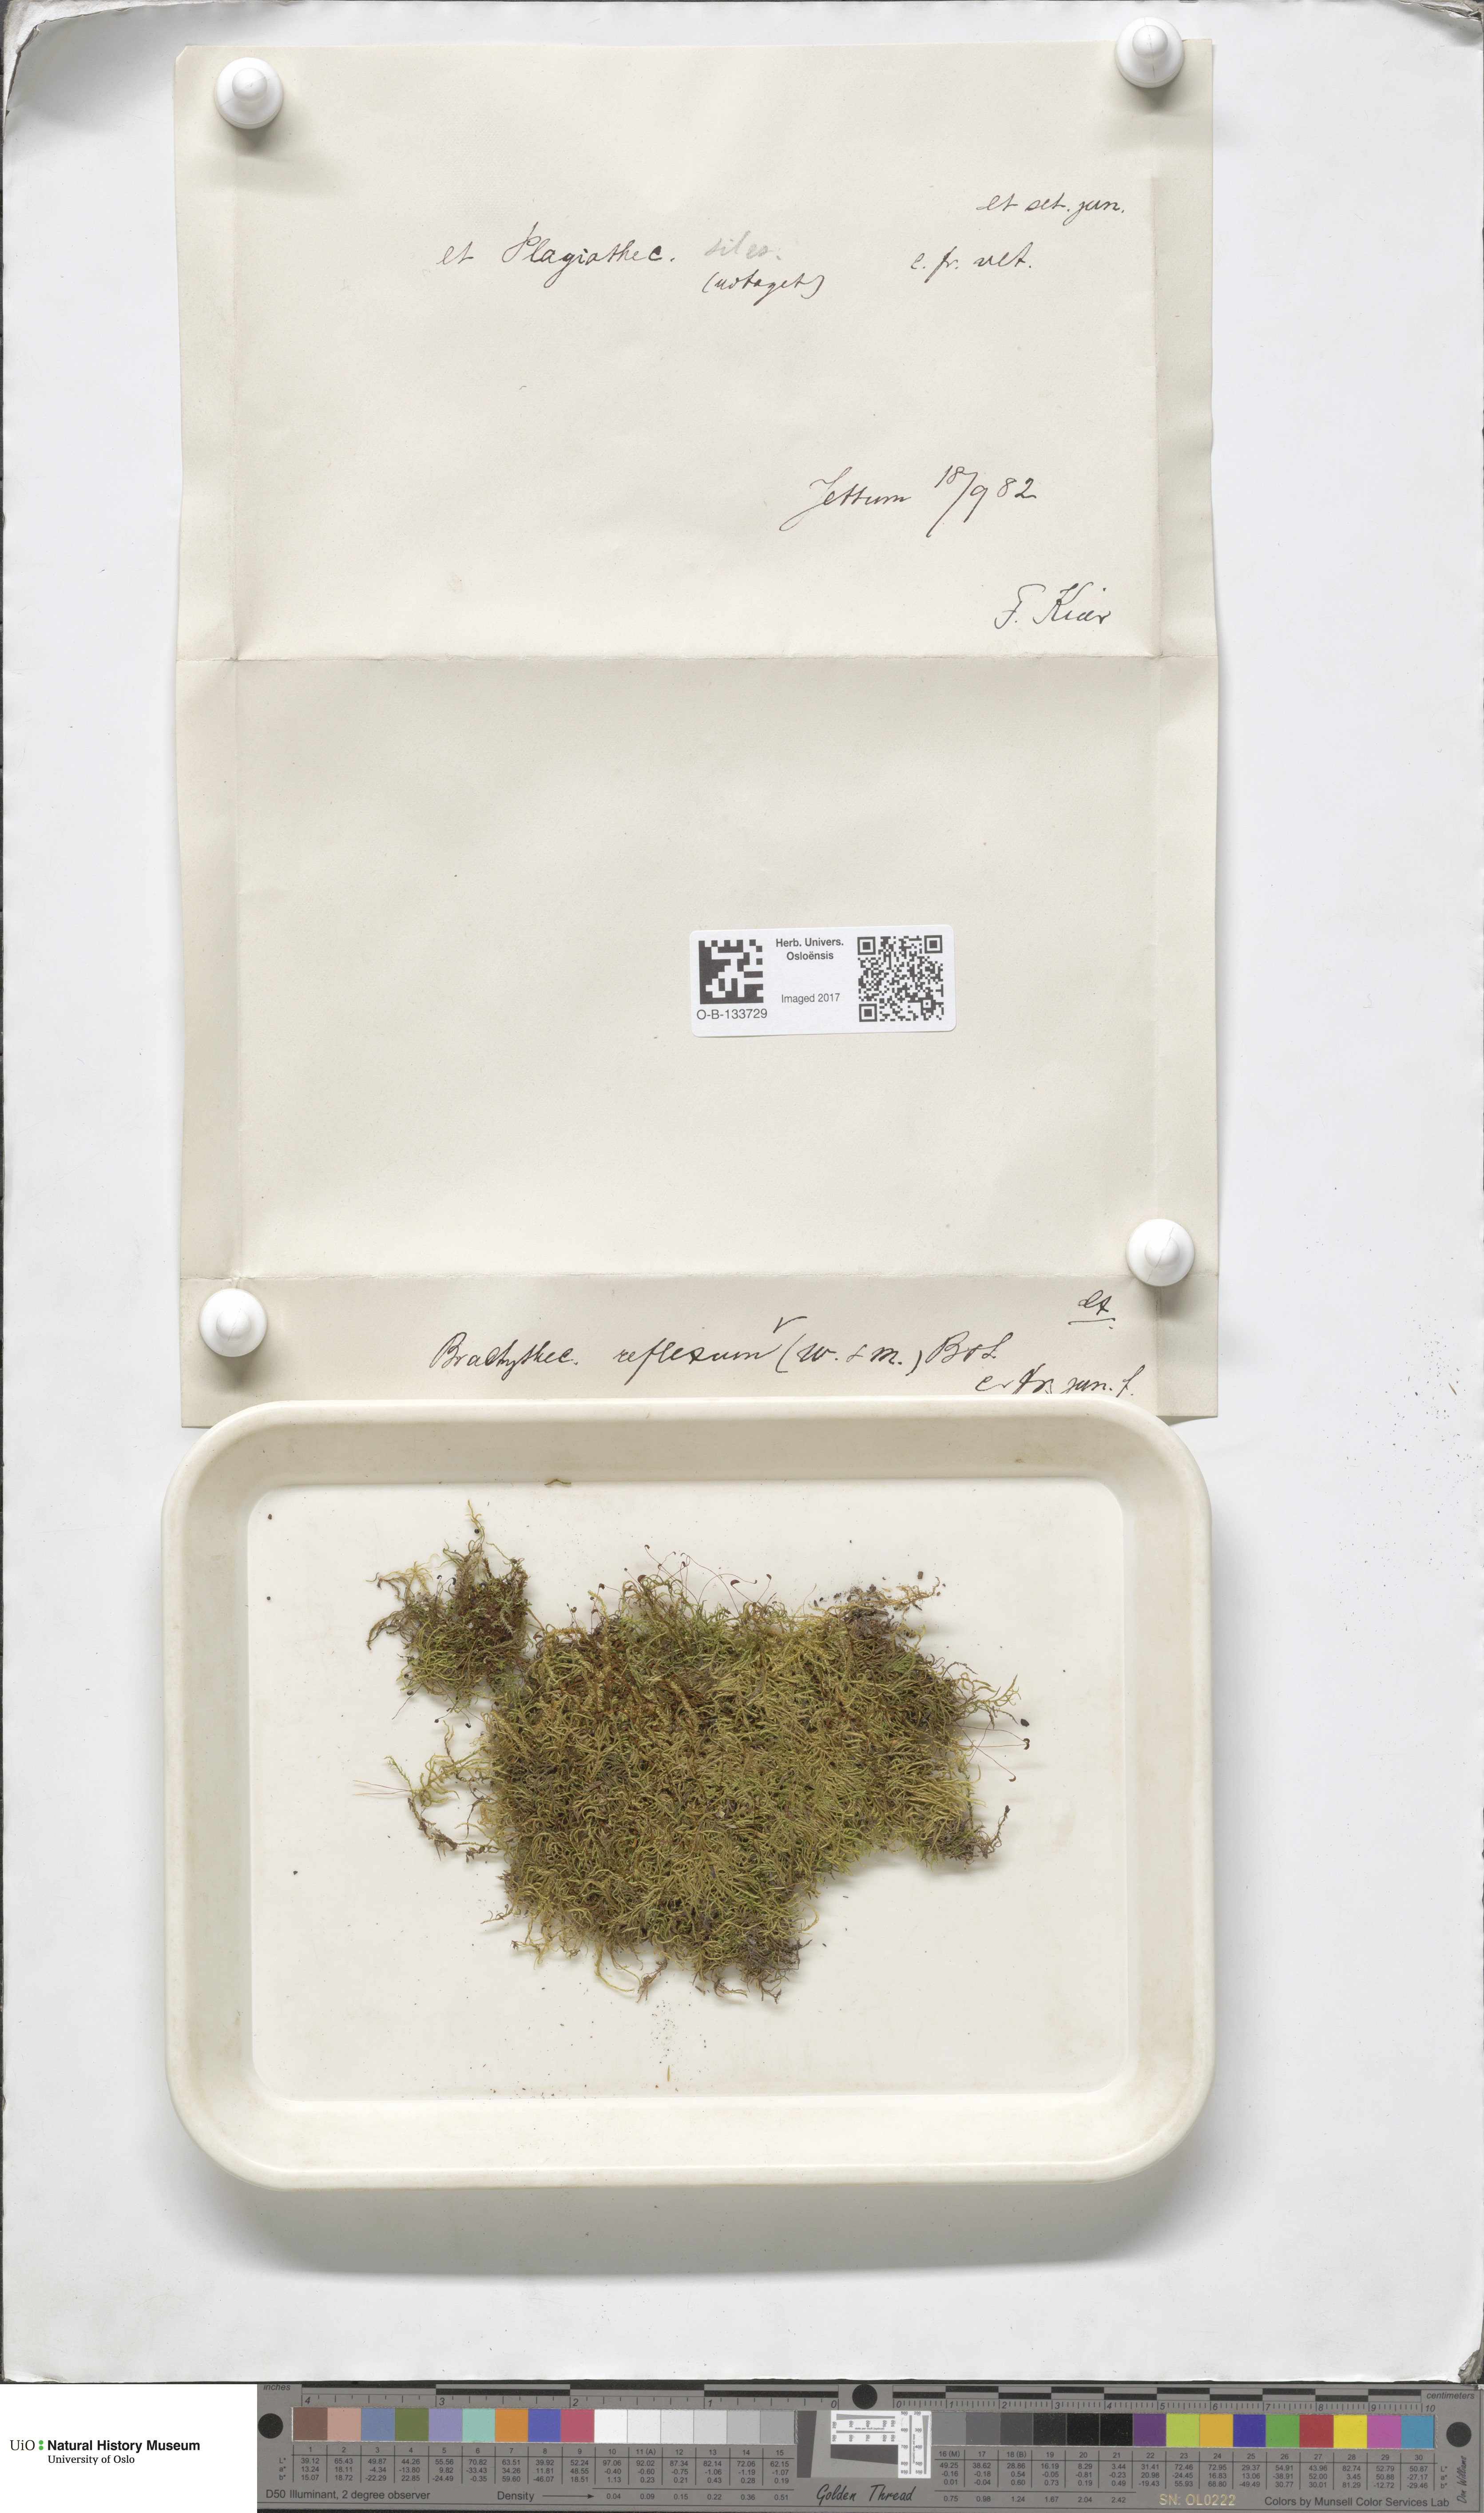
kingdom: Plantae
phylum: Bryophyta
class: Bryopsida
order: Hypnales
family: Brachytheciaceae
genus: Sciuro-hypnum
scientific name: Sciuro-hypnum reflexum
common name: Reflexed feather-moss
